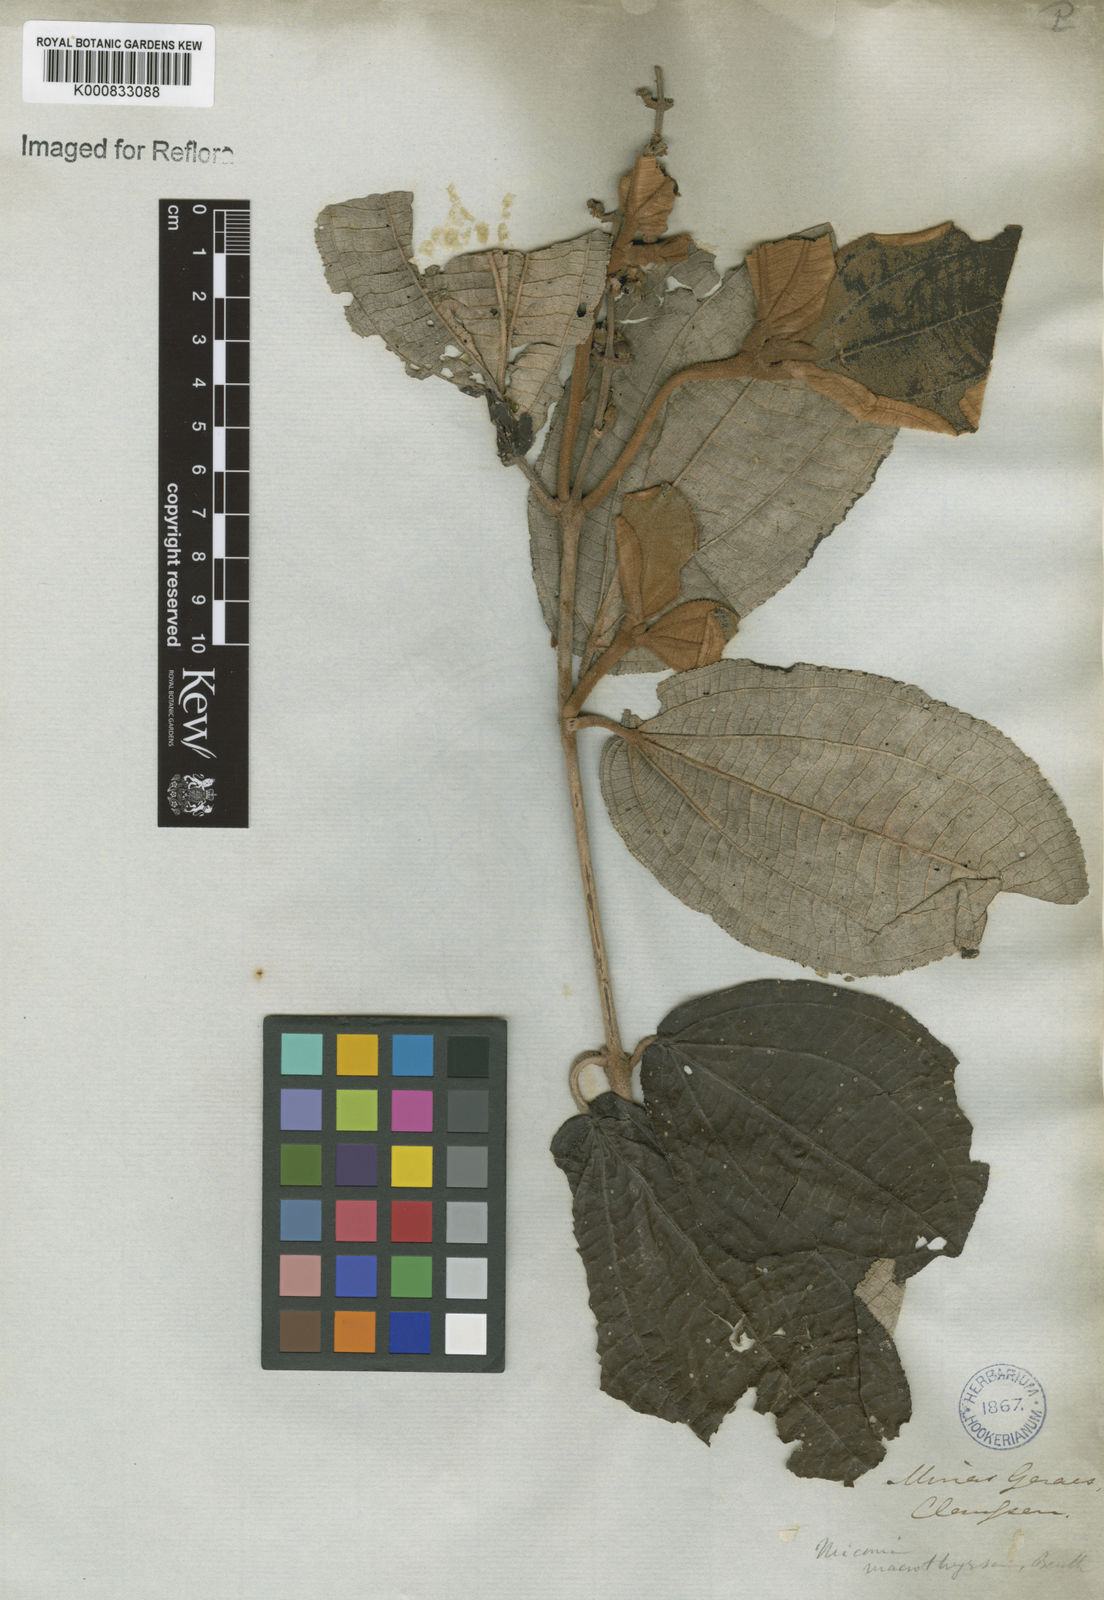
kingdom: Plantae
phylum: Tracheophyta
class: Magnoliopsida
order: Myrtales
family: Melastomataceae
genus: Miconia
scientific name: Miconia macrothyrsa
